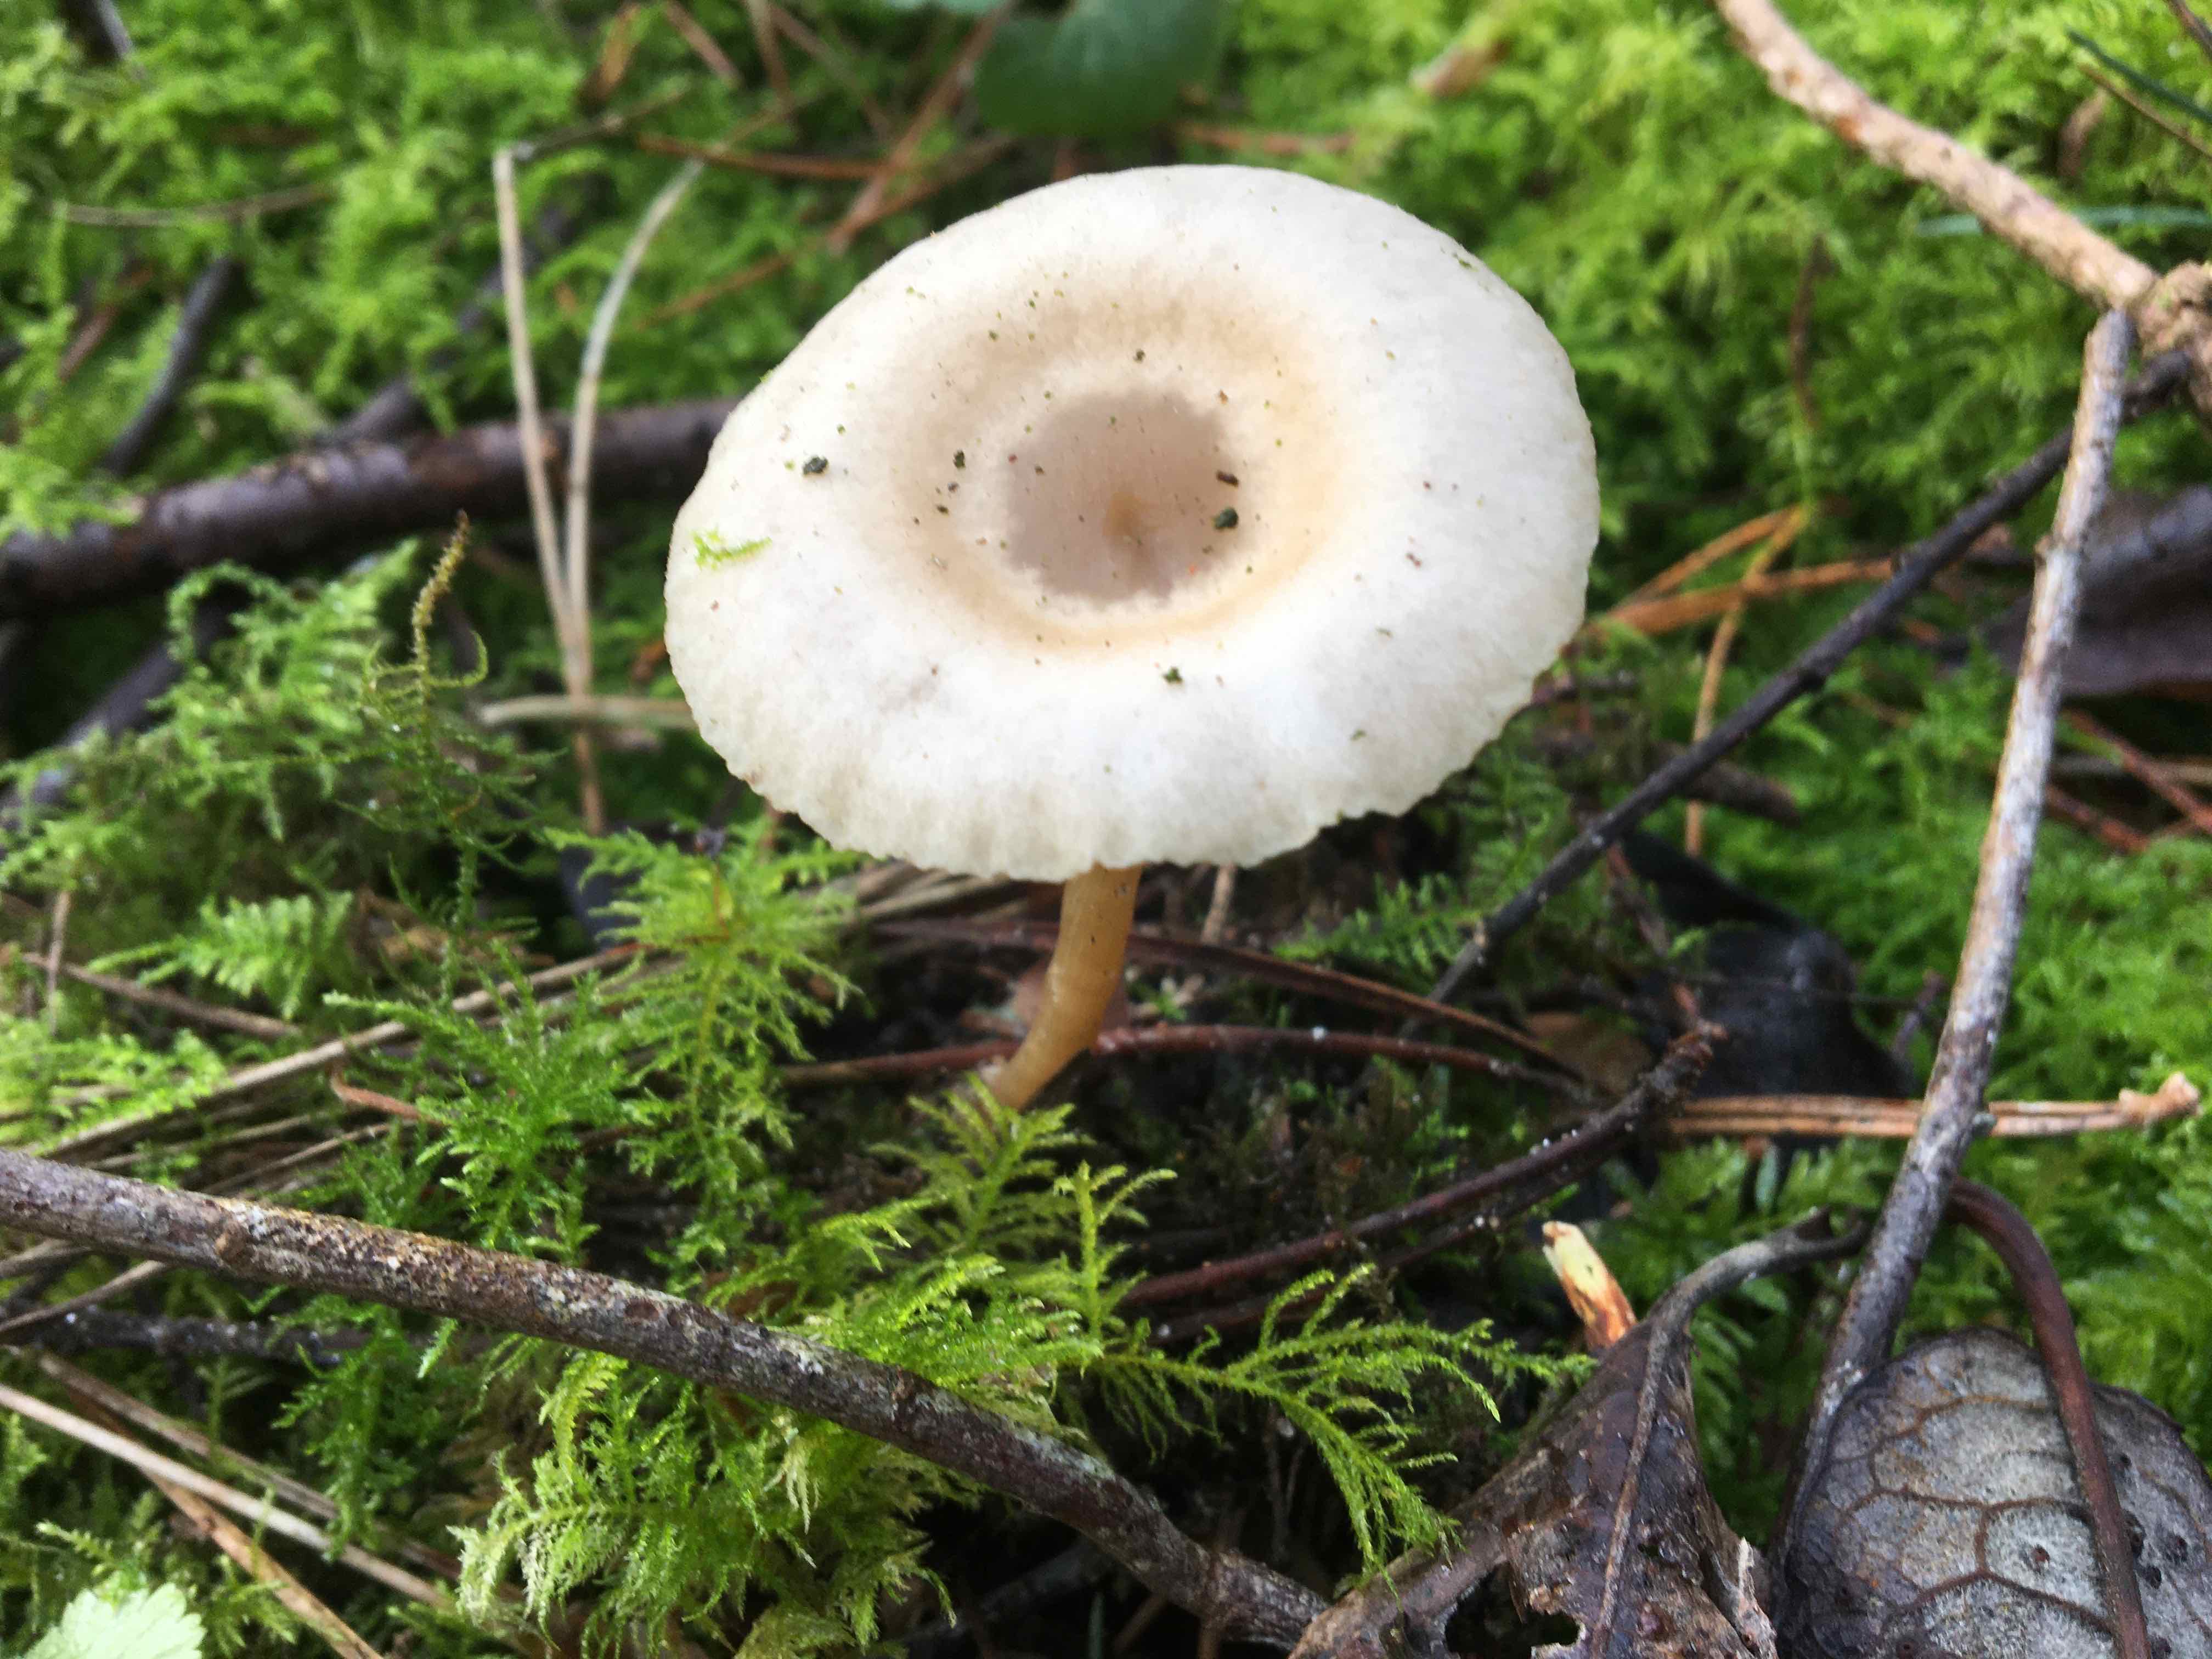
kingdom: Fungi
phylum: Basidiomycota
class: Agaricomycetes
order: Agaricales
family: Tricholomataceae
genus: Clitocybe
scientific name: Clitocybe fragrans
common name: vellugtende tragthat
